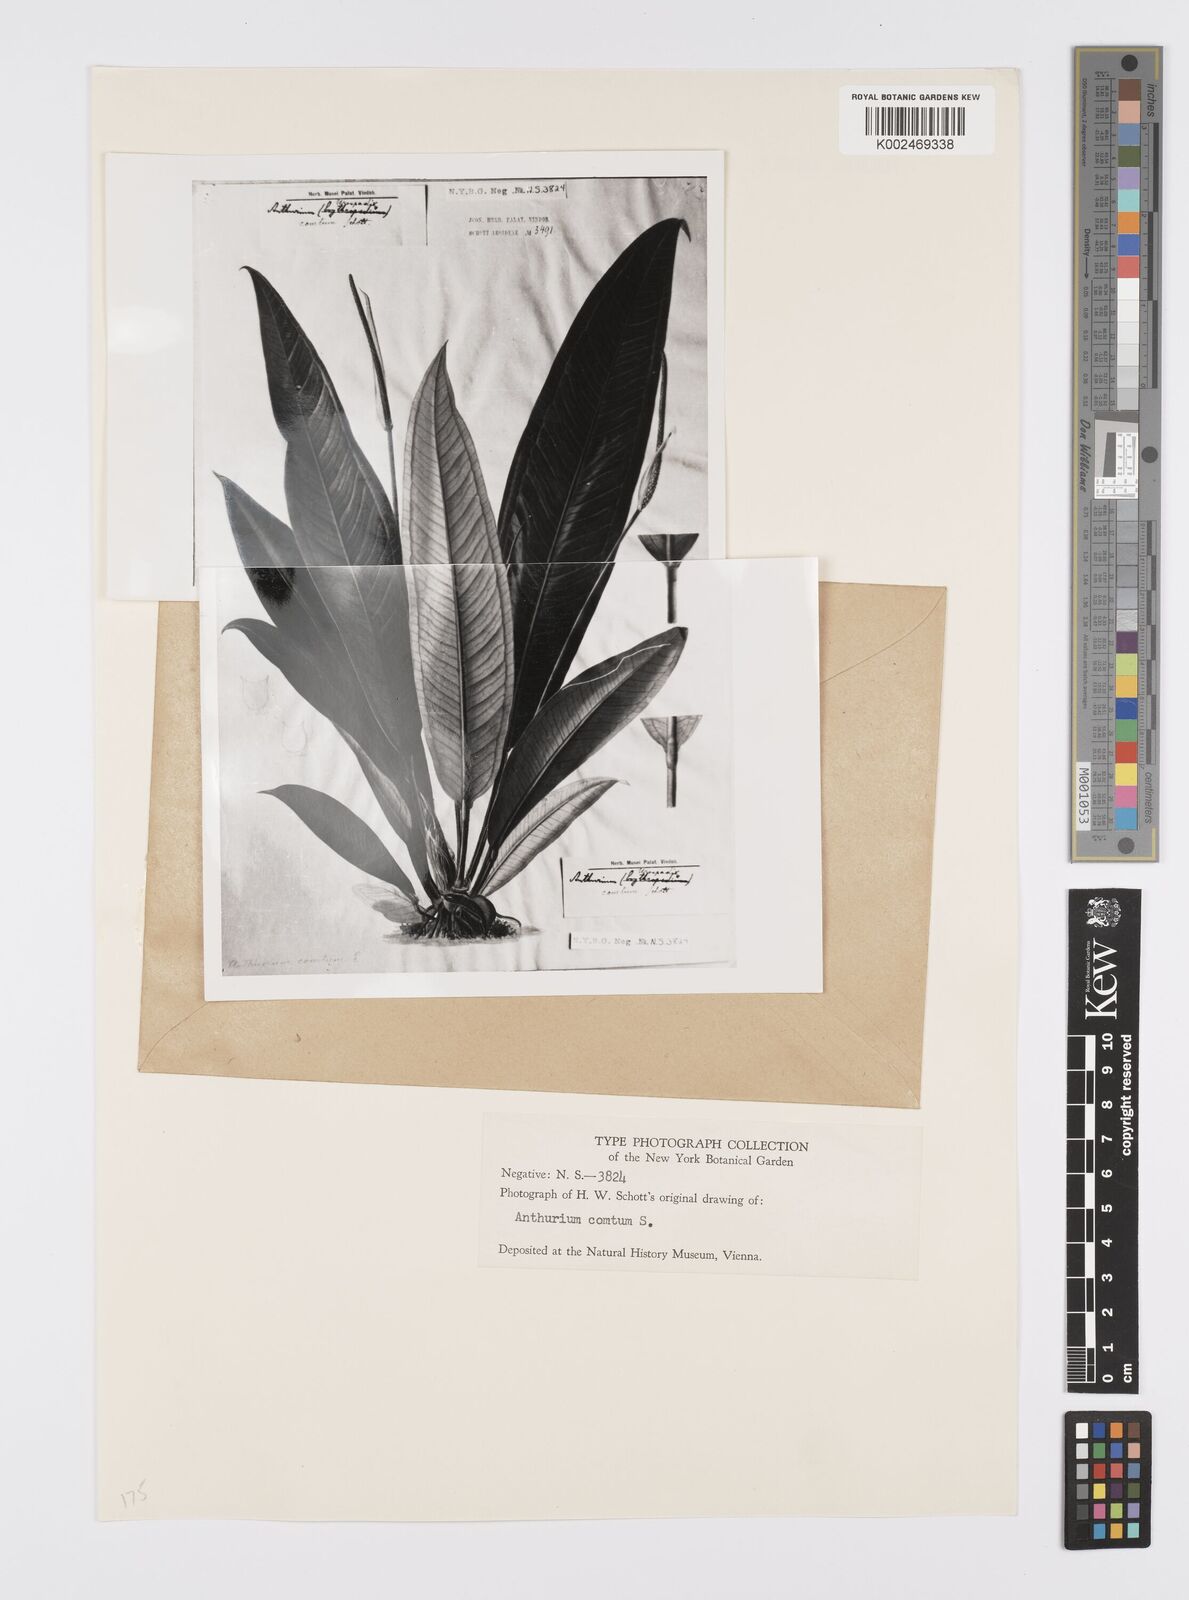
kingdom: Plantae
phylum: Tracheophyta
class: Liliopsida
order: Alismatales
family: Araceae
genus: Anthurium
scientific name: Anthurium comtum
